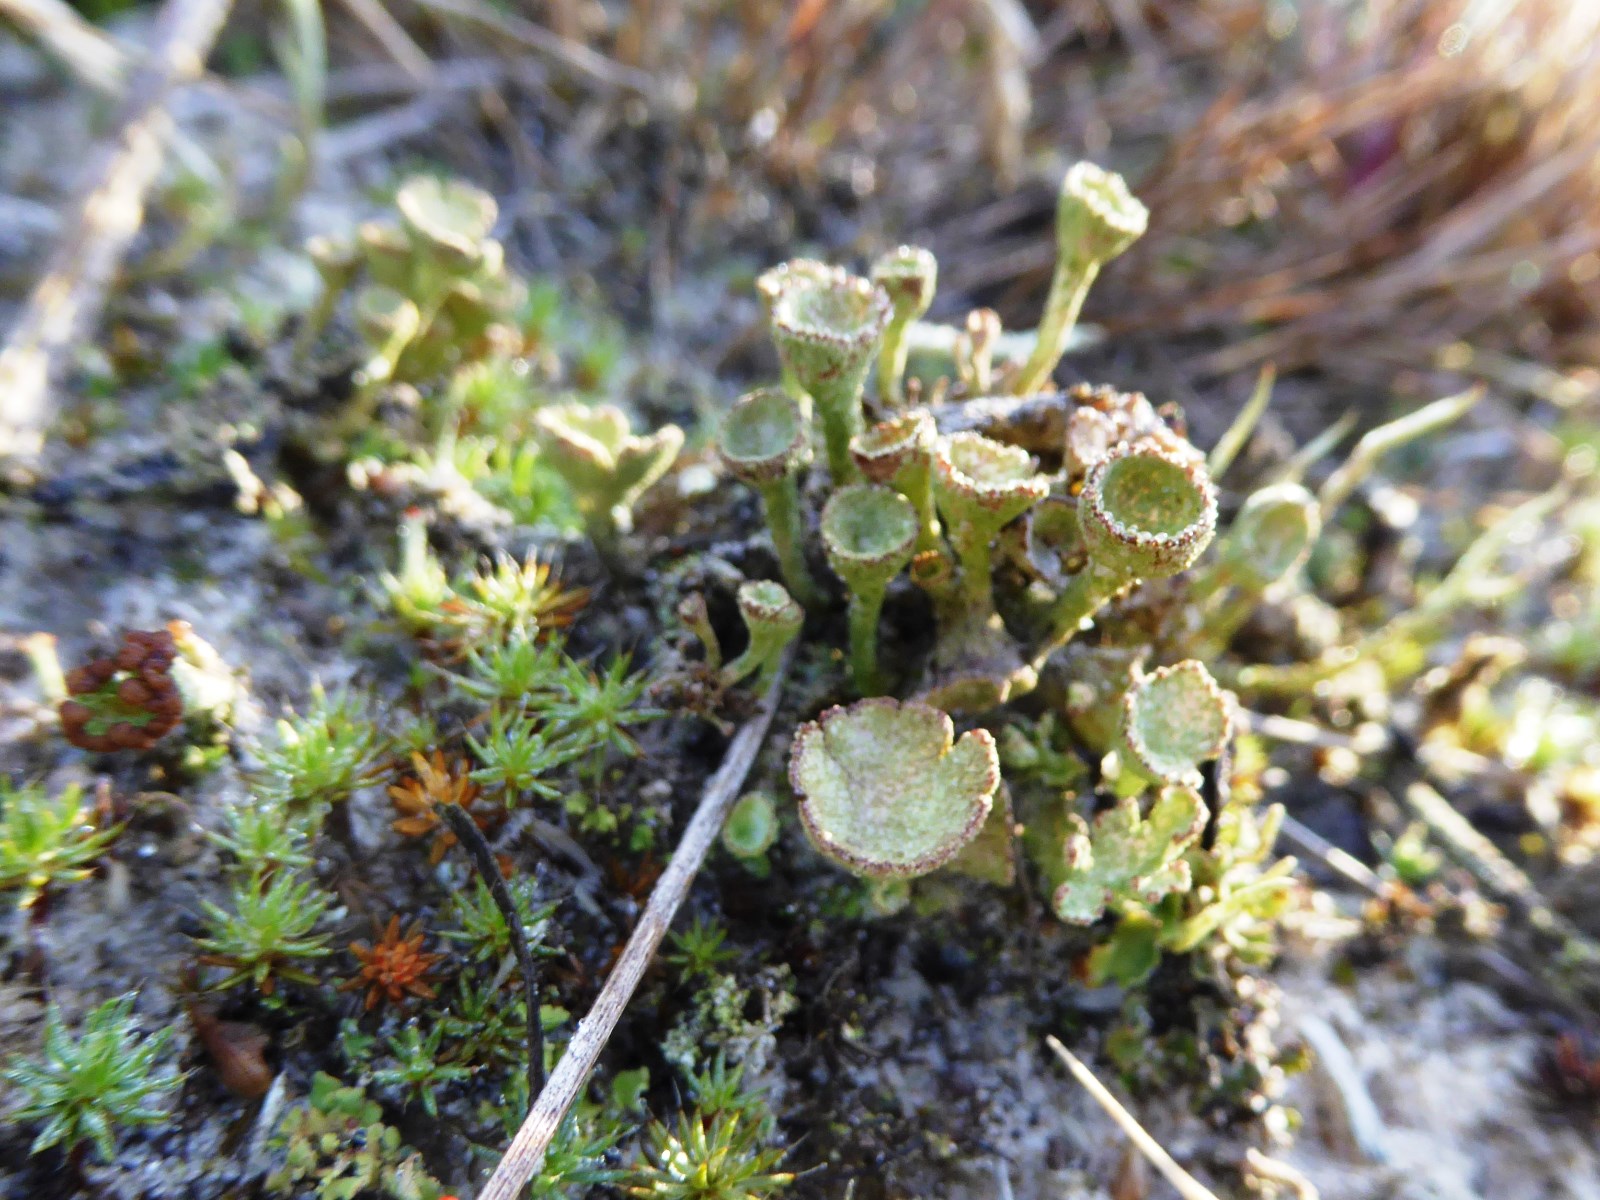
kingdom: Fungi
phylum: Ascomycota
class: Lecanoromycetes
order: Lecanorales
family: Cladoniaceae
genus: Cladonia
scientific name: Cladonia
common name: brungrøn bægerlav
